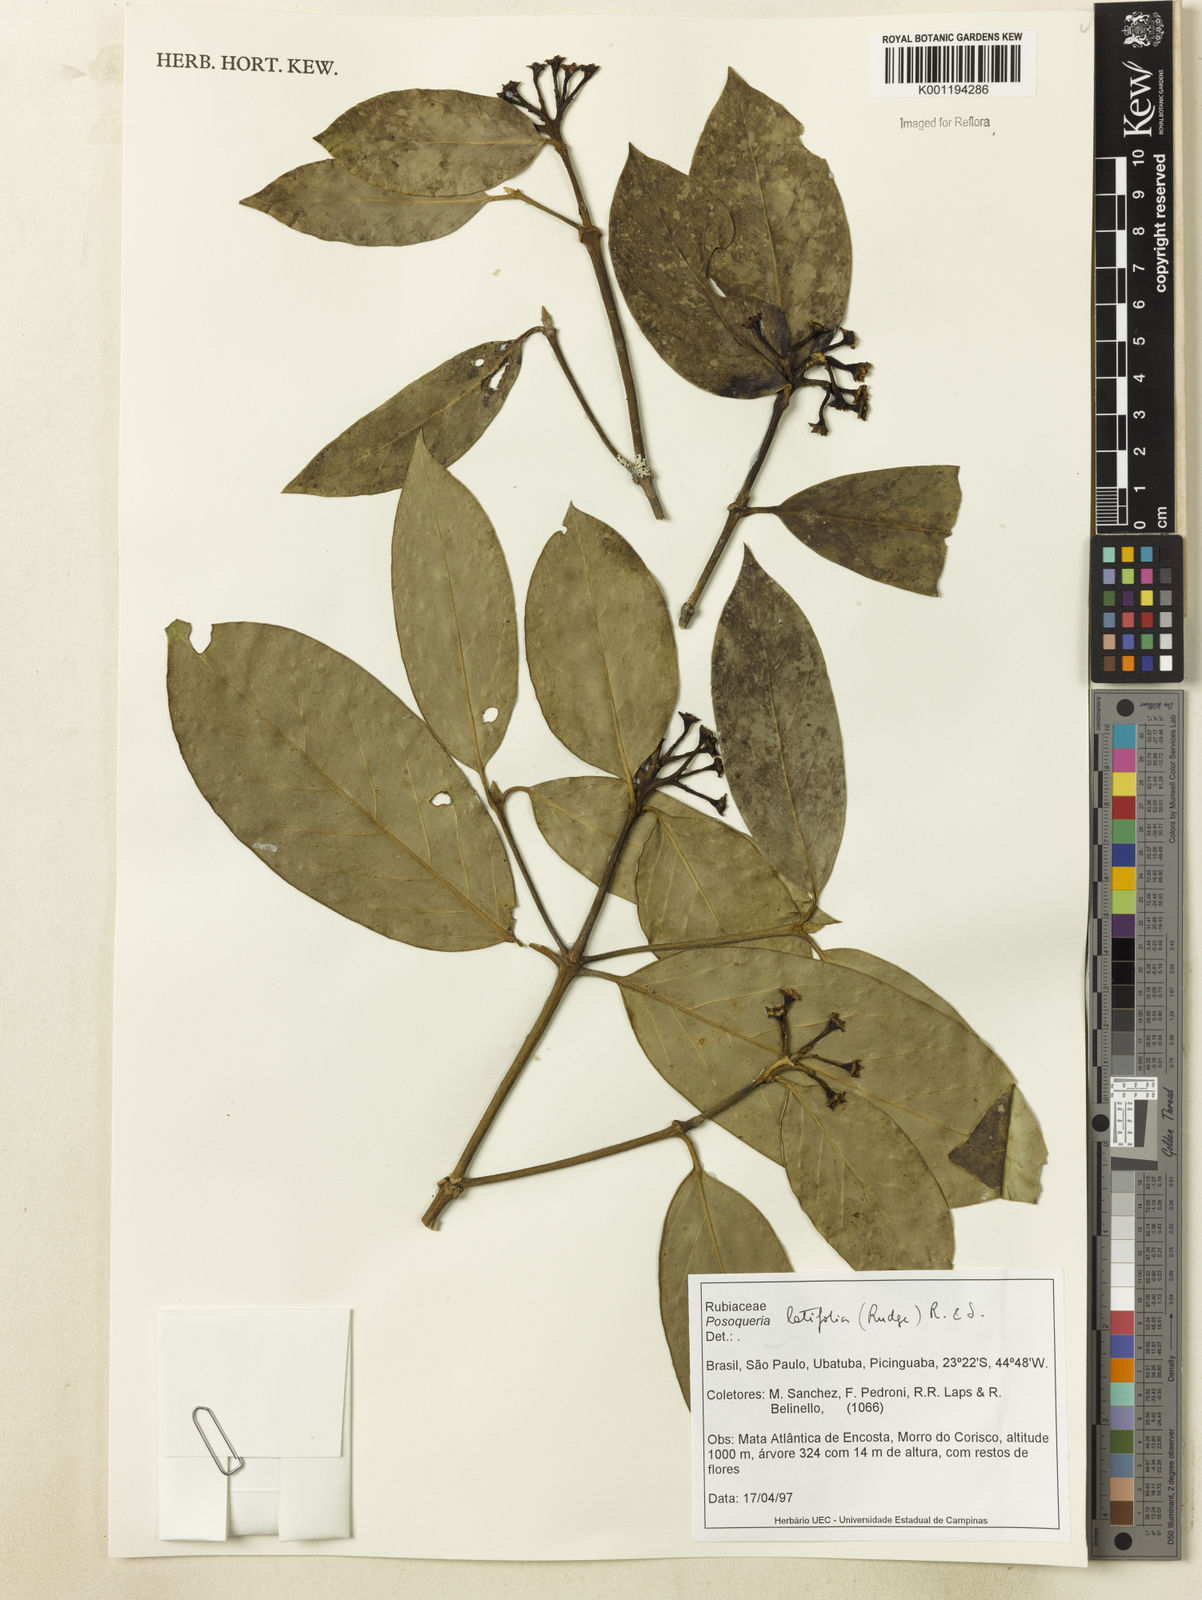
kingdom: Plantae
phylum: Tracheophyta
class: Magnoliopsida
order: Gentianales
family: Rubiaceae
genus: Posoqueria
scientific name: Posoqueria latifolia
